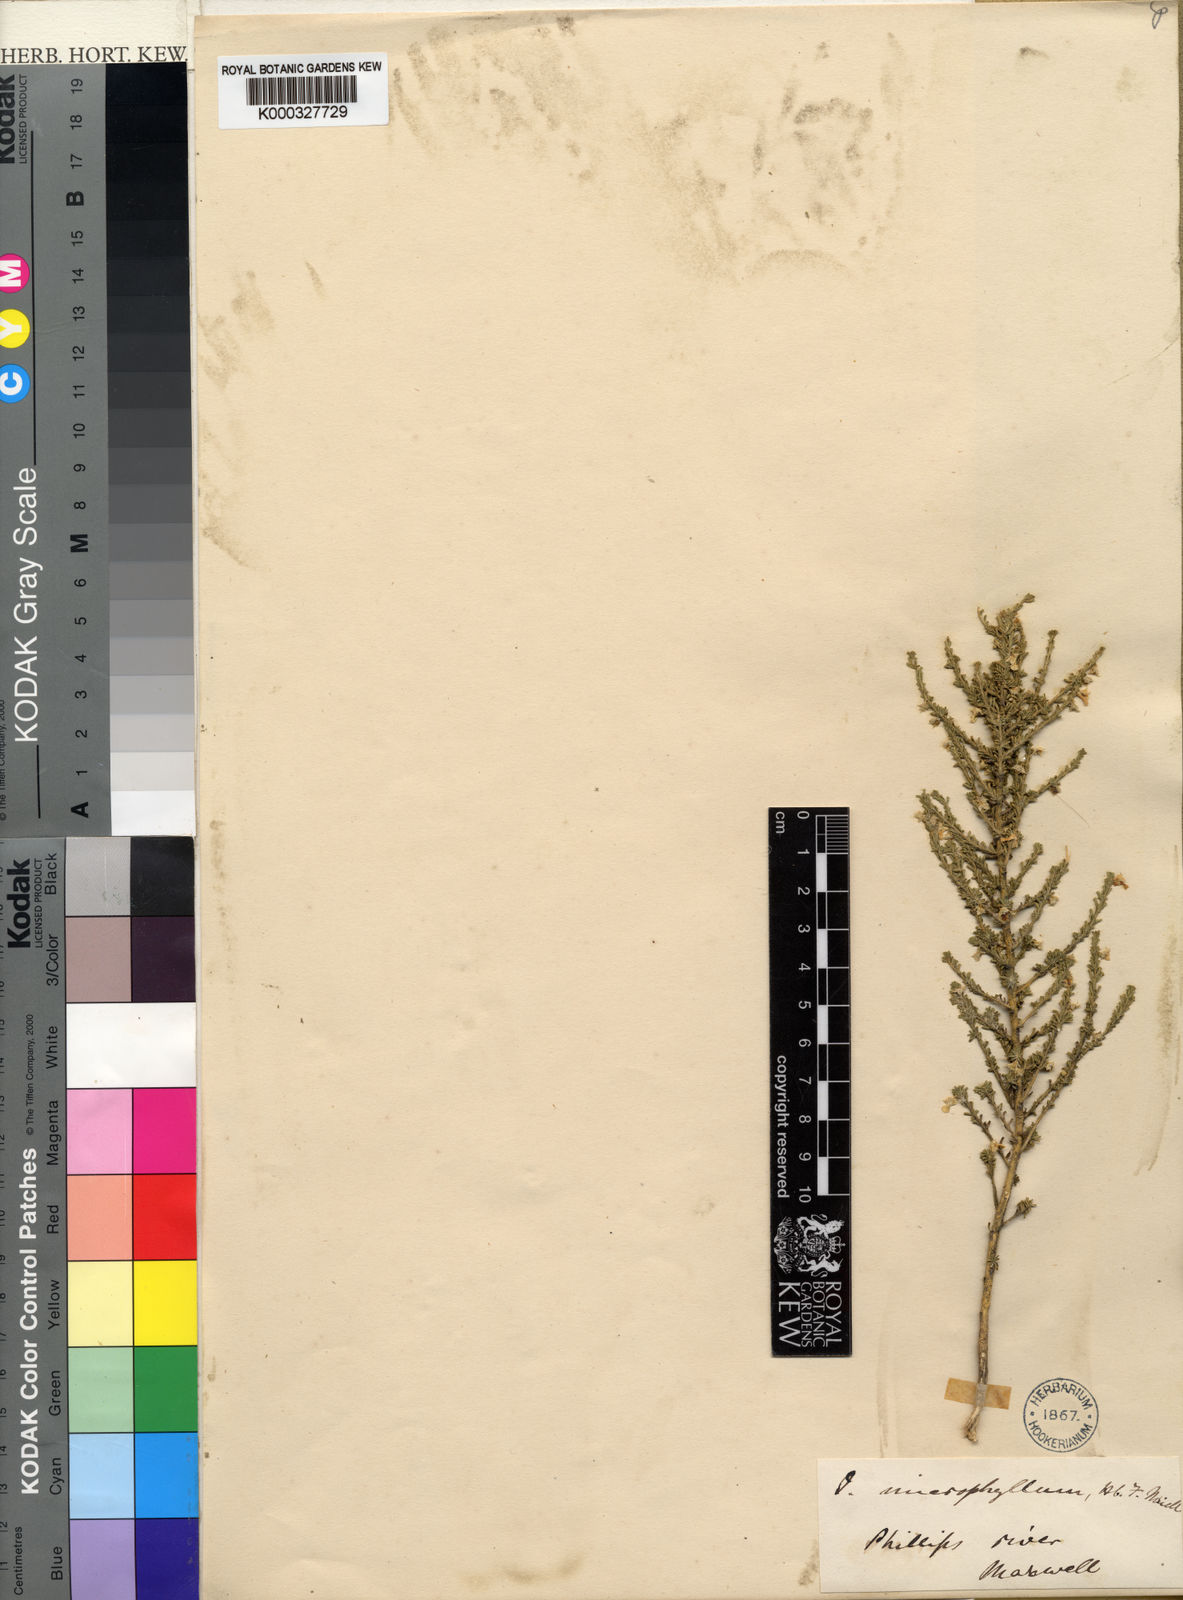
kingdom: Plantae
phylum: Tracheophyta
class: Magnoliopsida
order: Malpighiales
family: Violaceae
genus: Pombalia
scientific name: Pombalia parviflora
